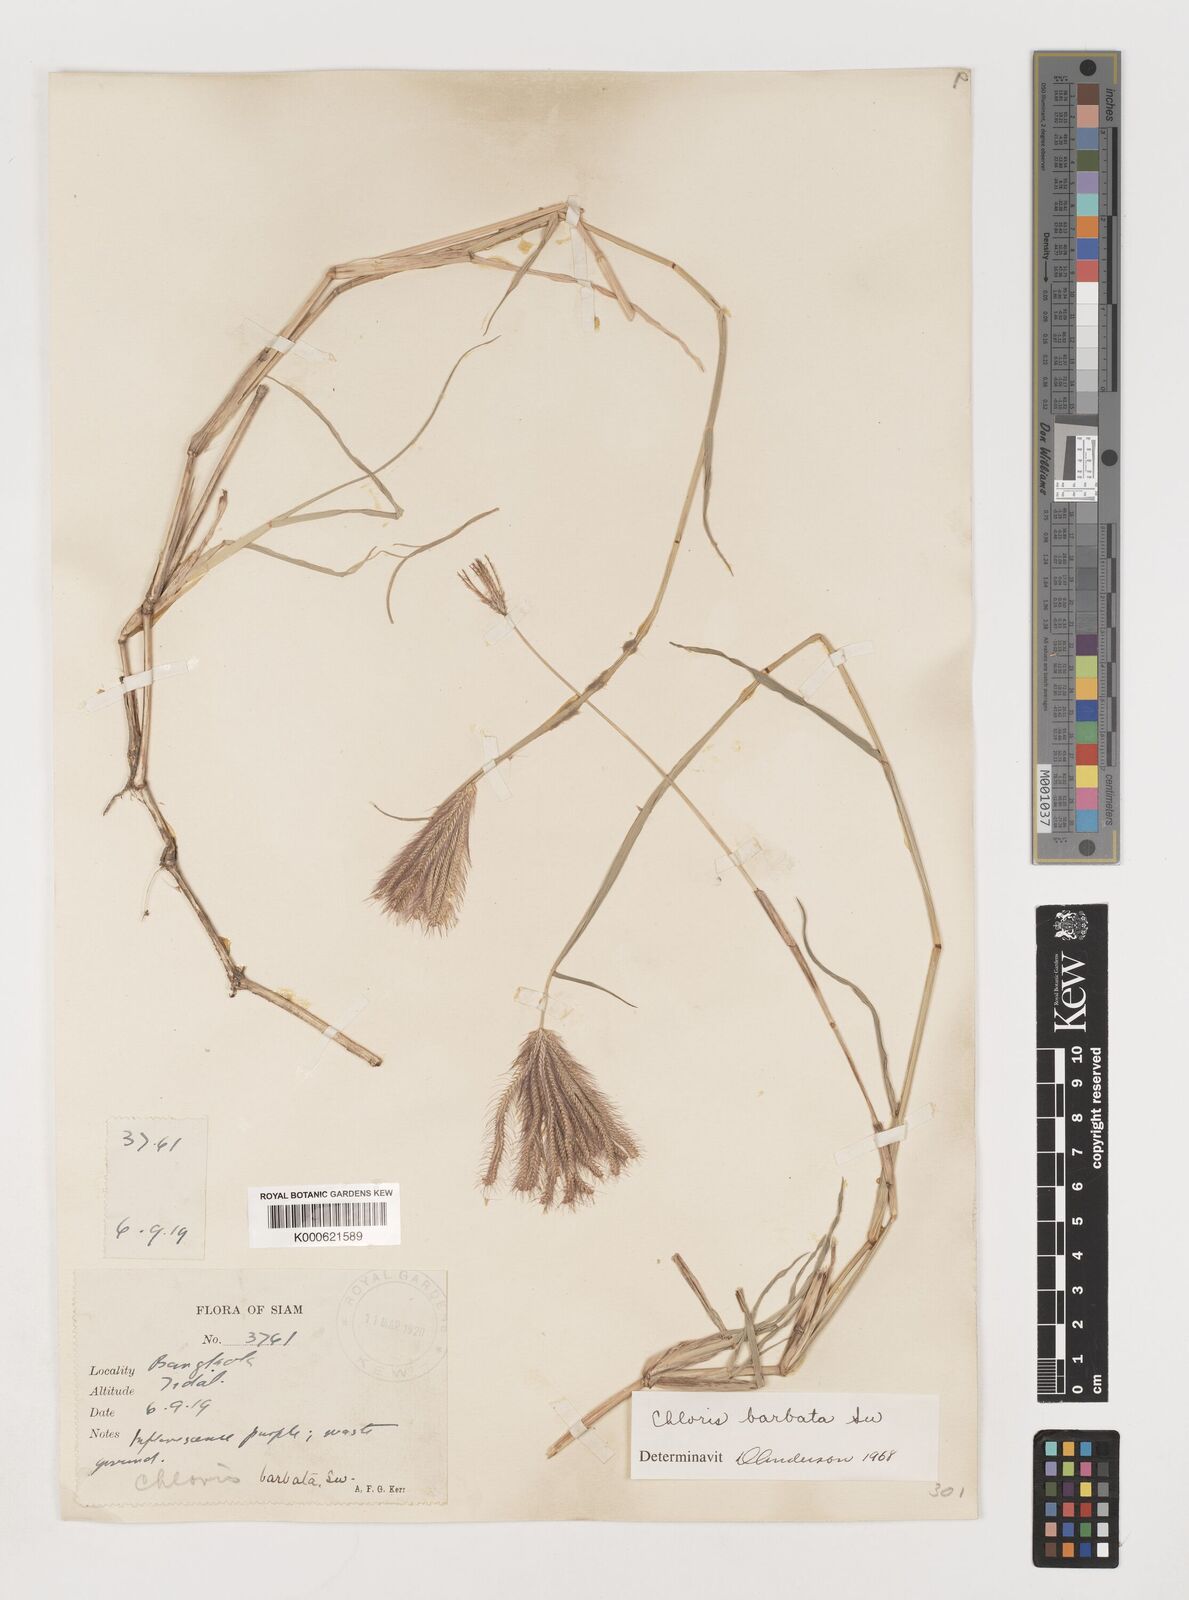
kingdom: Plantae
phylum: Tracheophyta
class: Liliopsida
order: Poales
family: Poaceae
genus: Chloris
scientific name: Chloris barbata
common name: Swollen fingergrass
